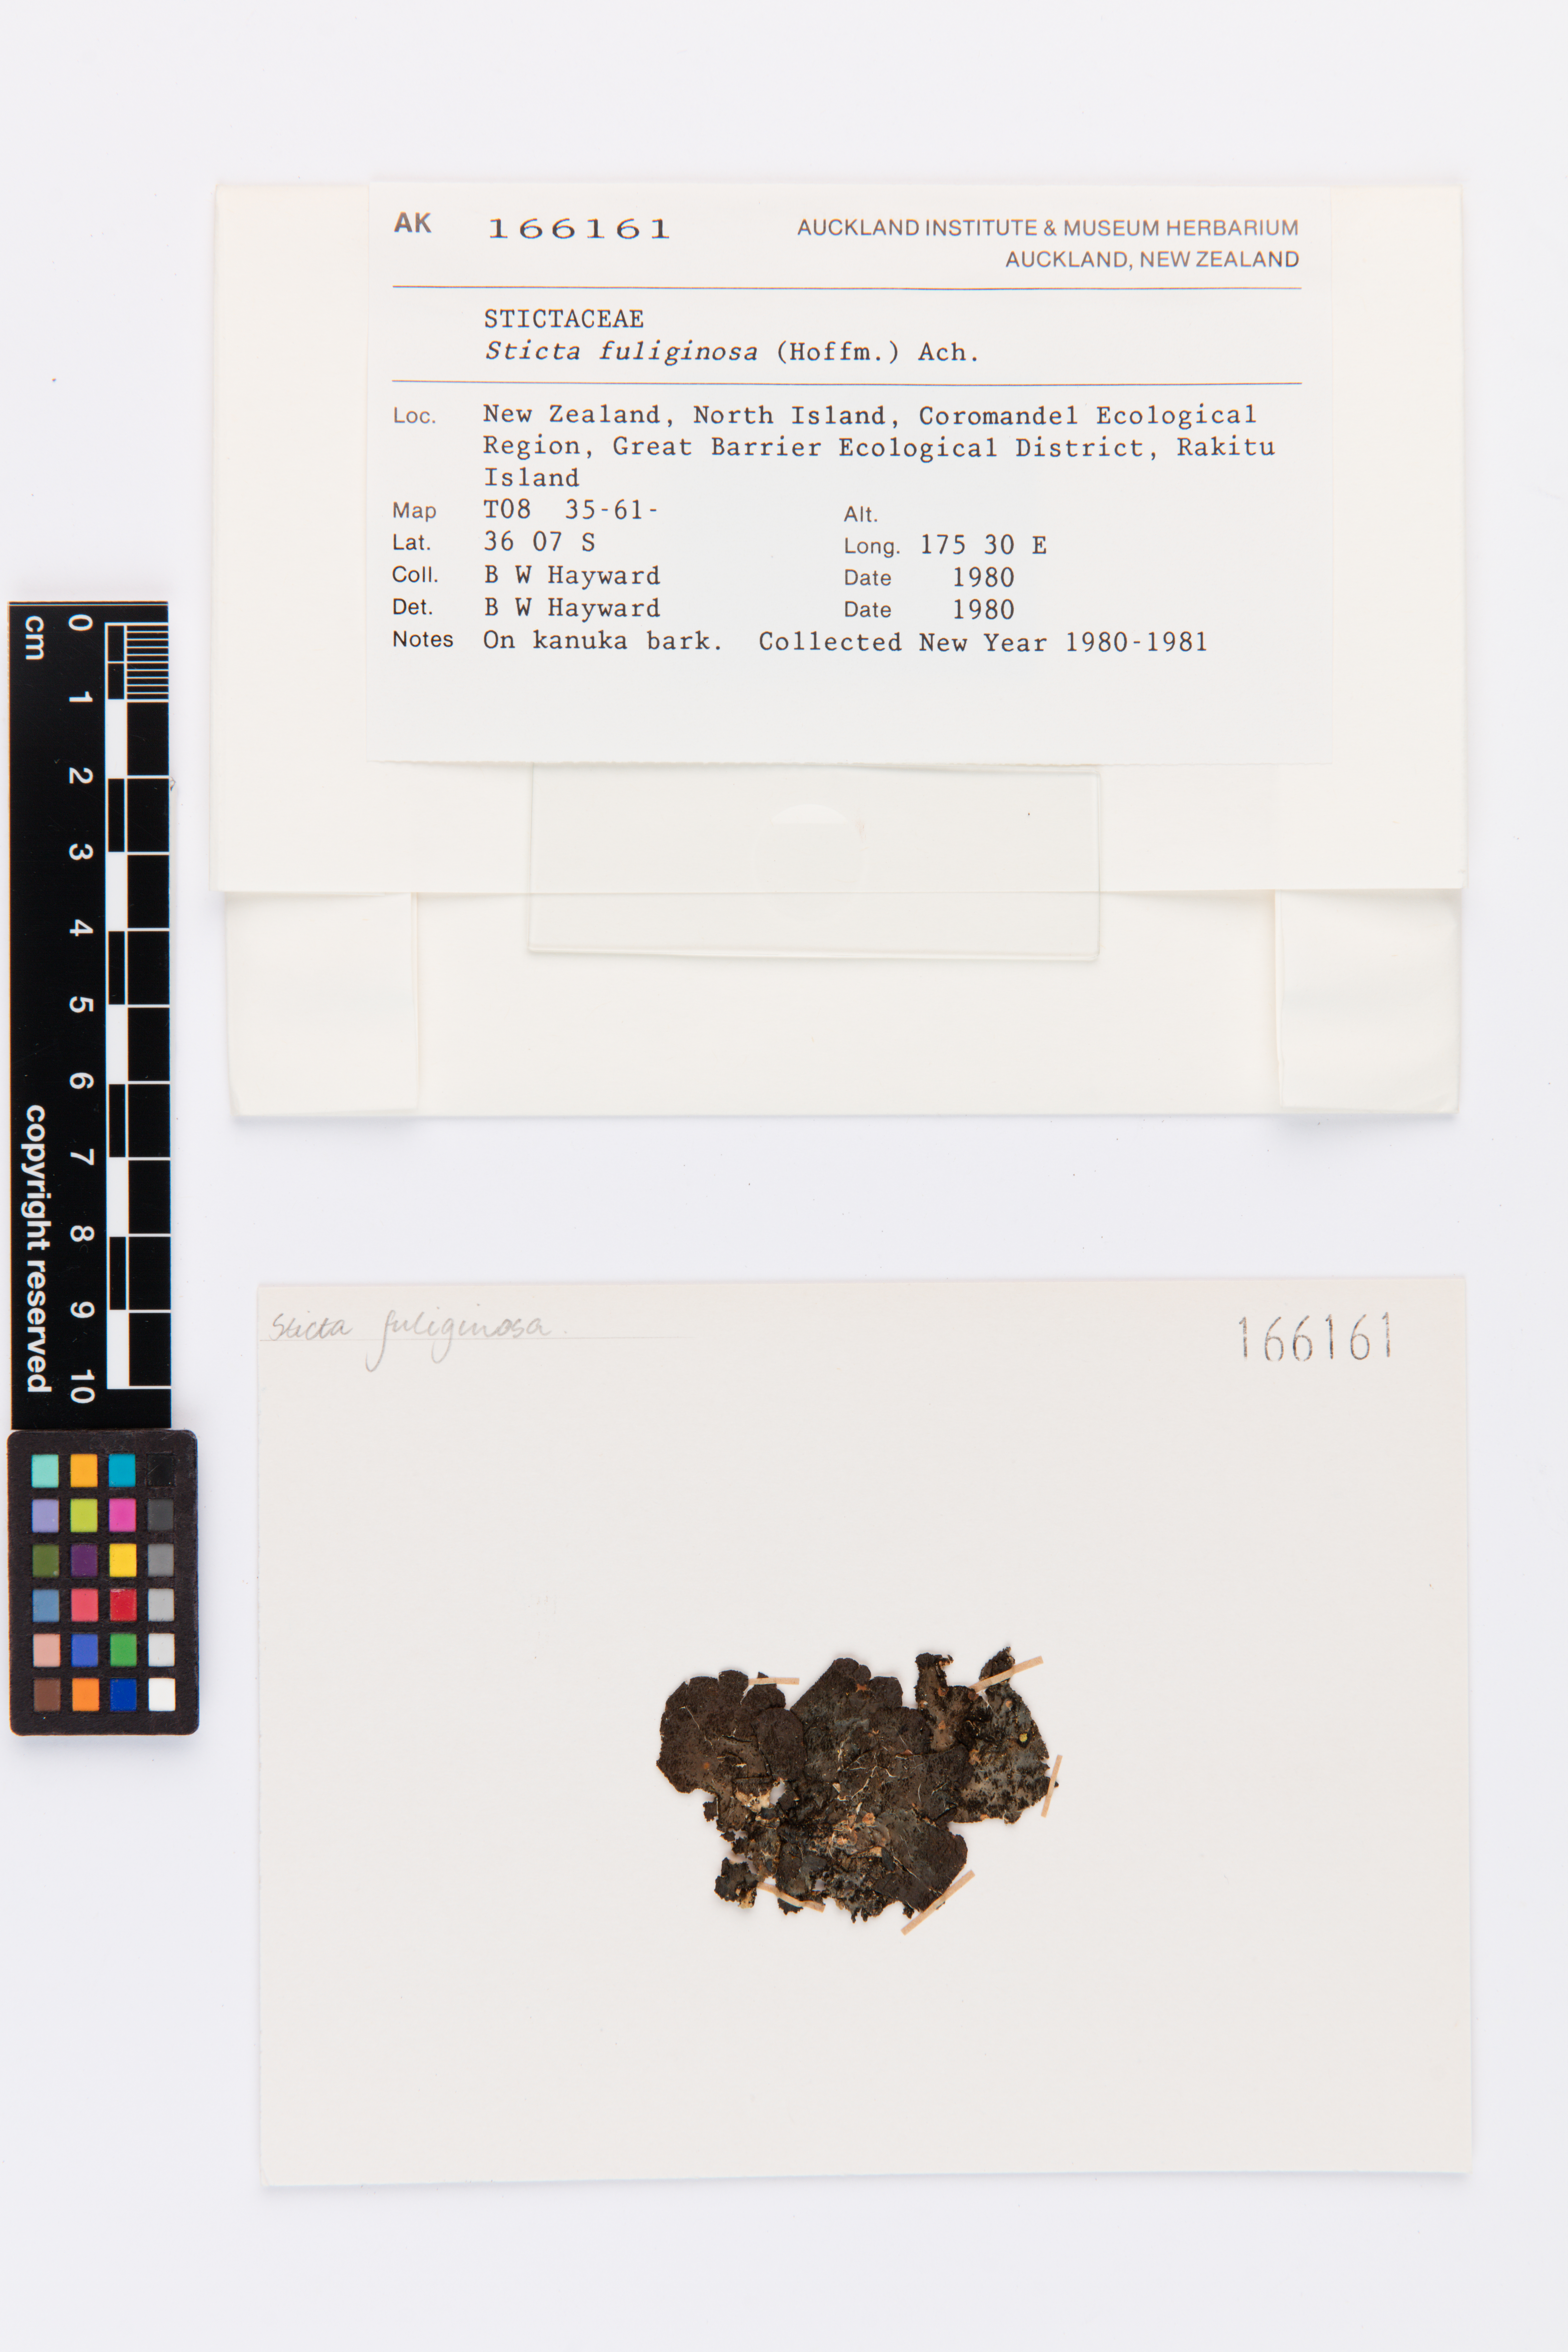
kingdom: Fungi
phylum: Ascomycota
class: Lecanoromycetes
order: Peltigerales
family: Lobariaceae
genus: Sticta
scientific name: Sticta fuliginosa
